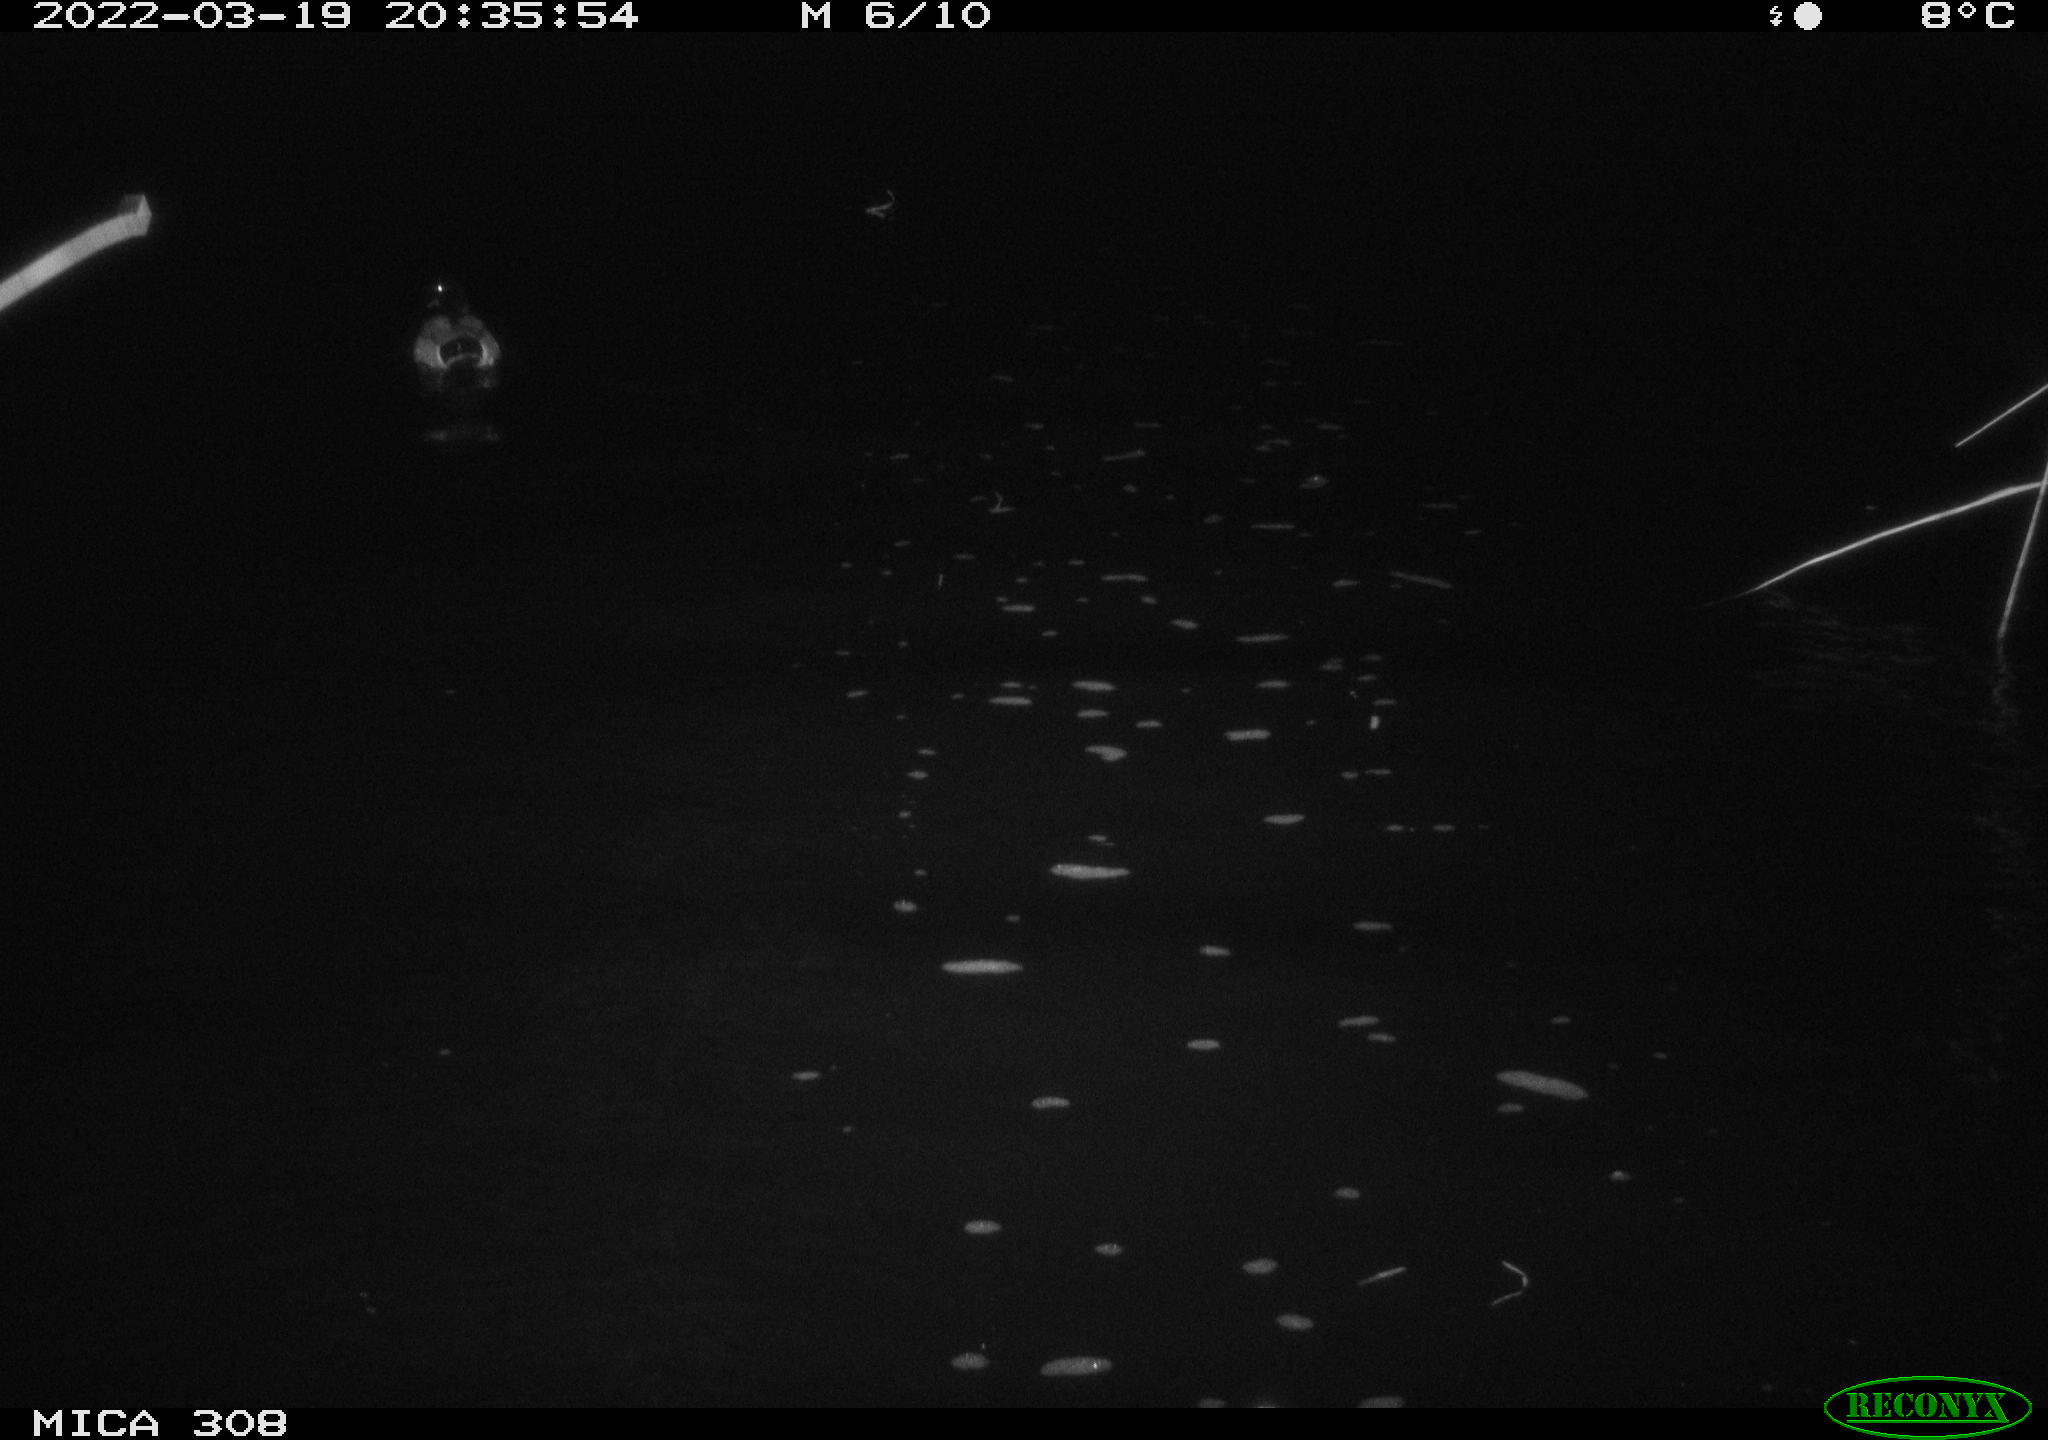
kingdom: Animalia
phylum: Chordata
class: Aves
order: Anseriformes
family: Anatidae
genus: Anas
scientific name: Anas platyrhynchos
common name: Mallard
